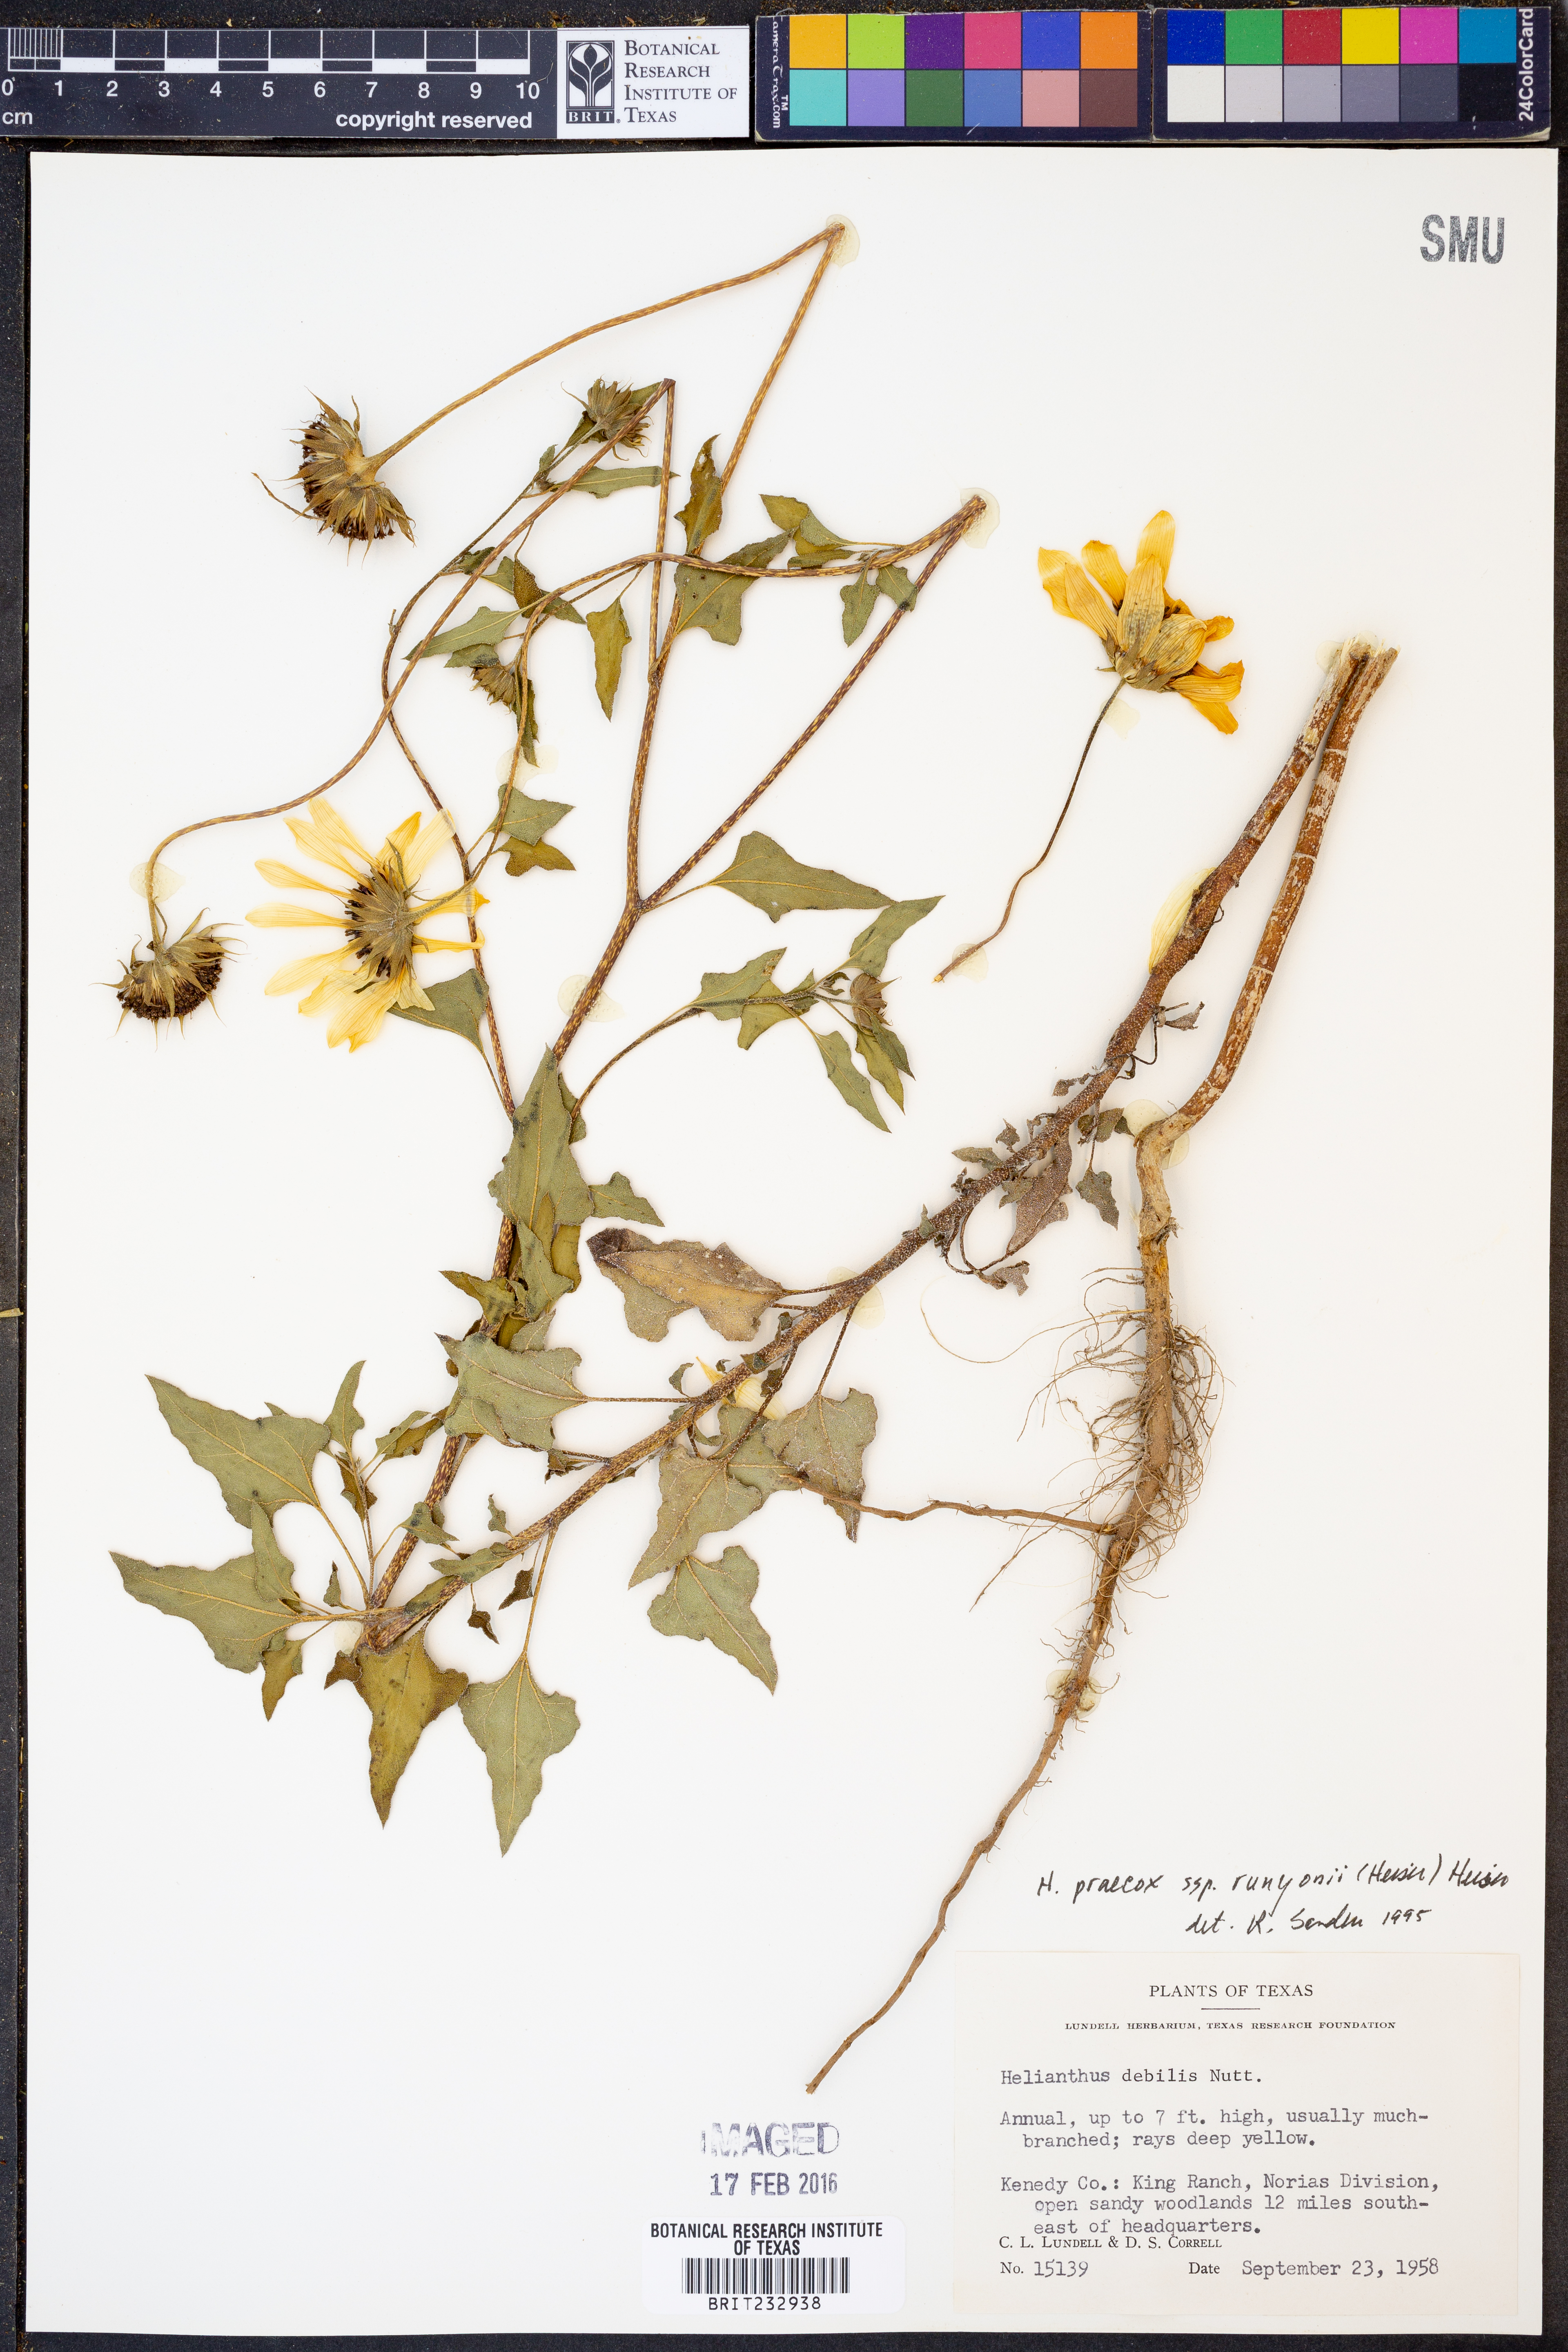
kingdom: Plantae
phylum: Tracheophyta
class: Magnoliopsida
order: Asterales
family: Asteraceae
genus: Helianthus
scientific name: Helianthus praecox
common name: Texas sunflower
